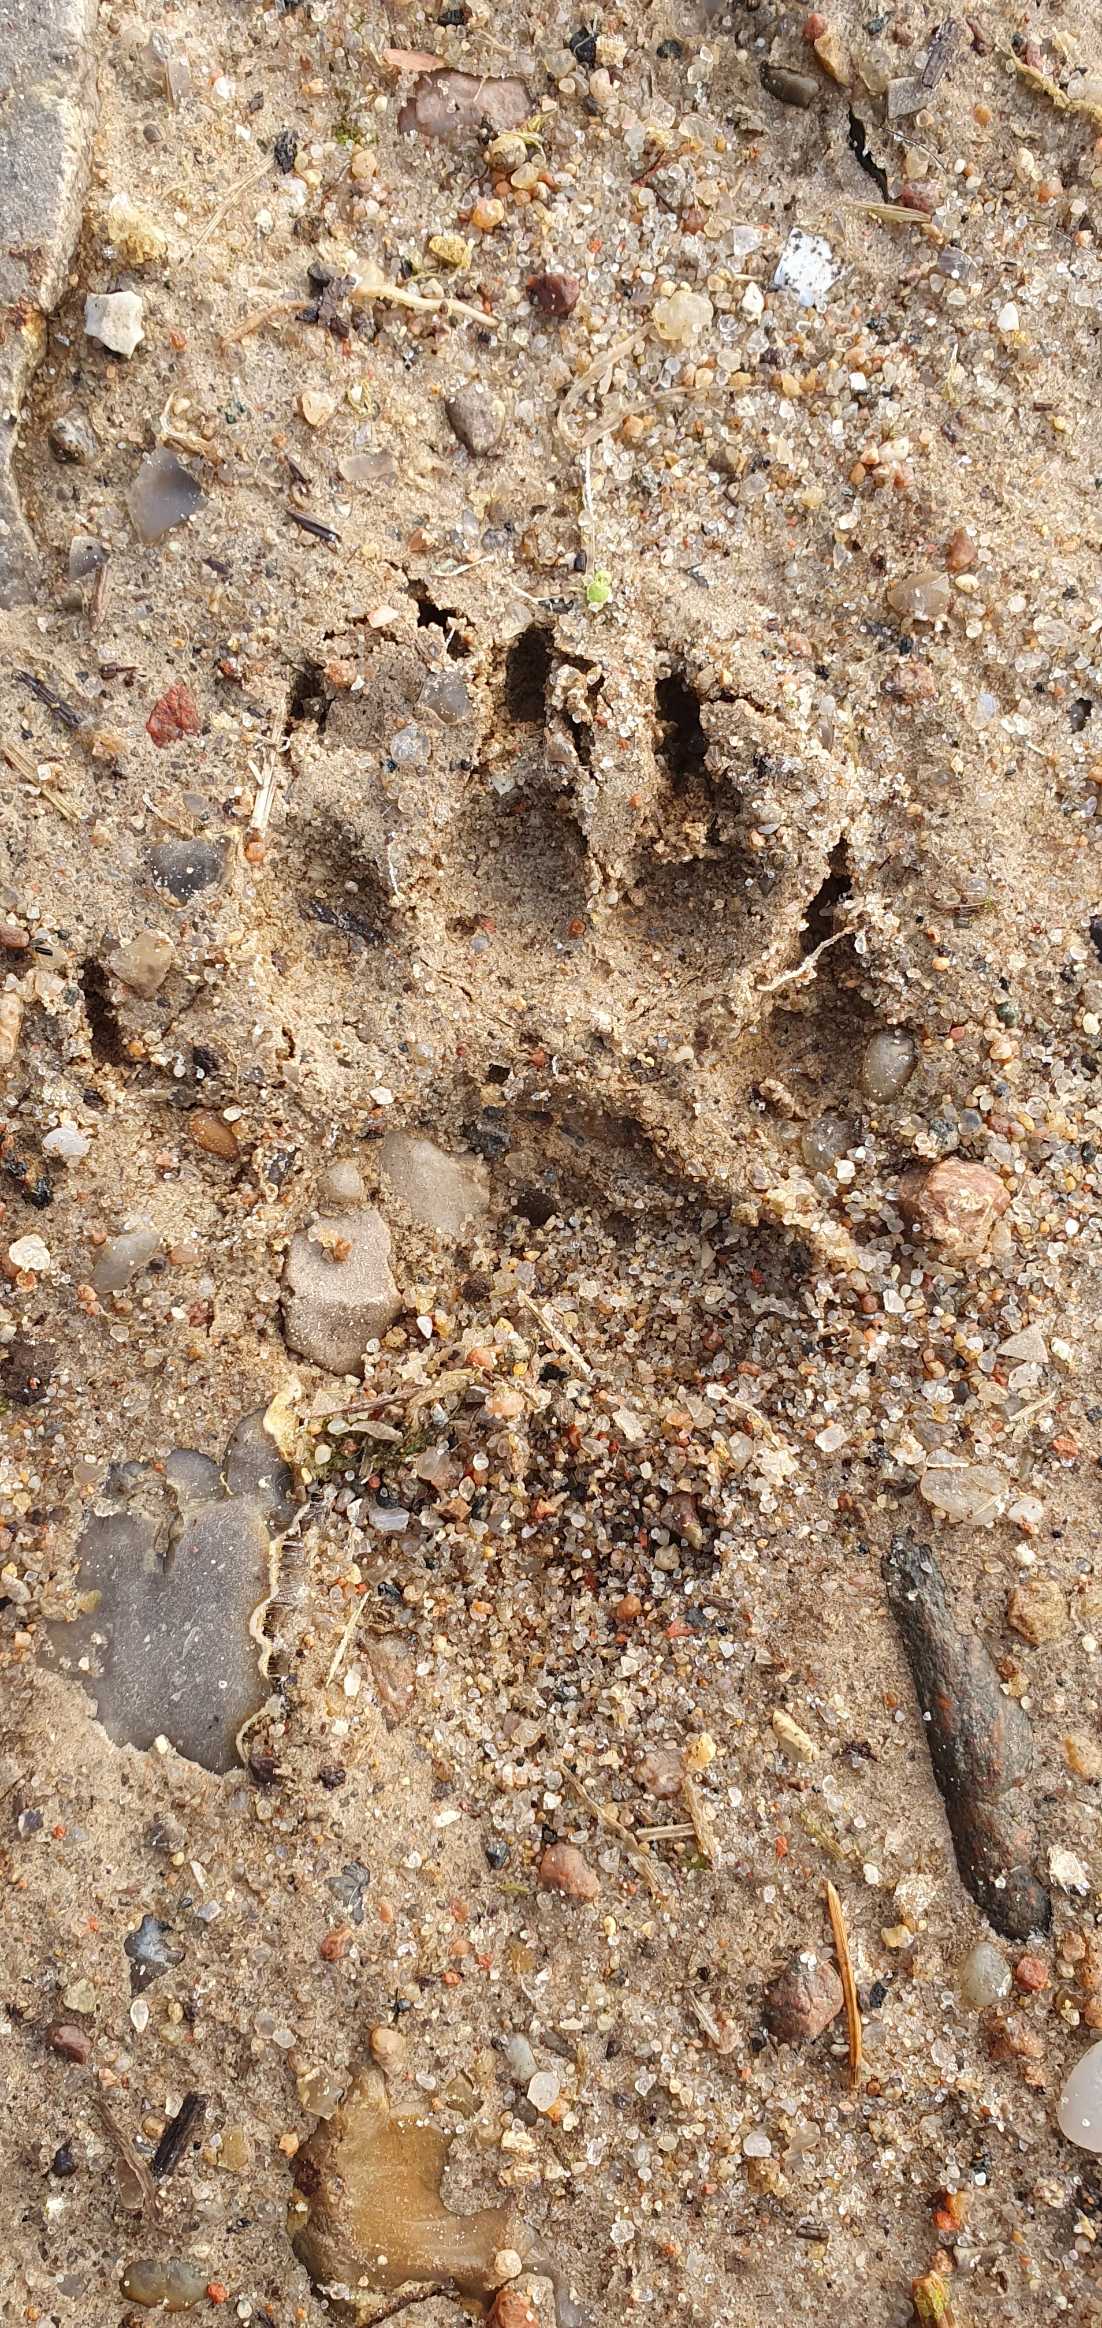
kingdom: Animalia
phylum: Chordata
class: Mammalia
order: Carnivora
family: Mustelidae
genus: Meles
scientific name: Meles meles
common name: Grævling
